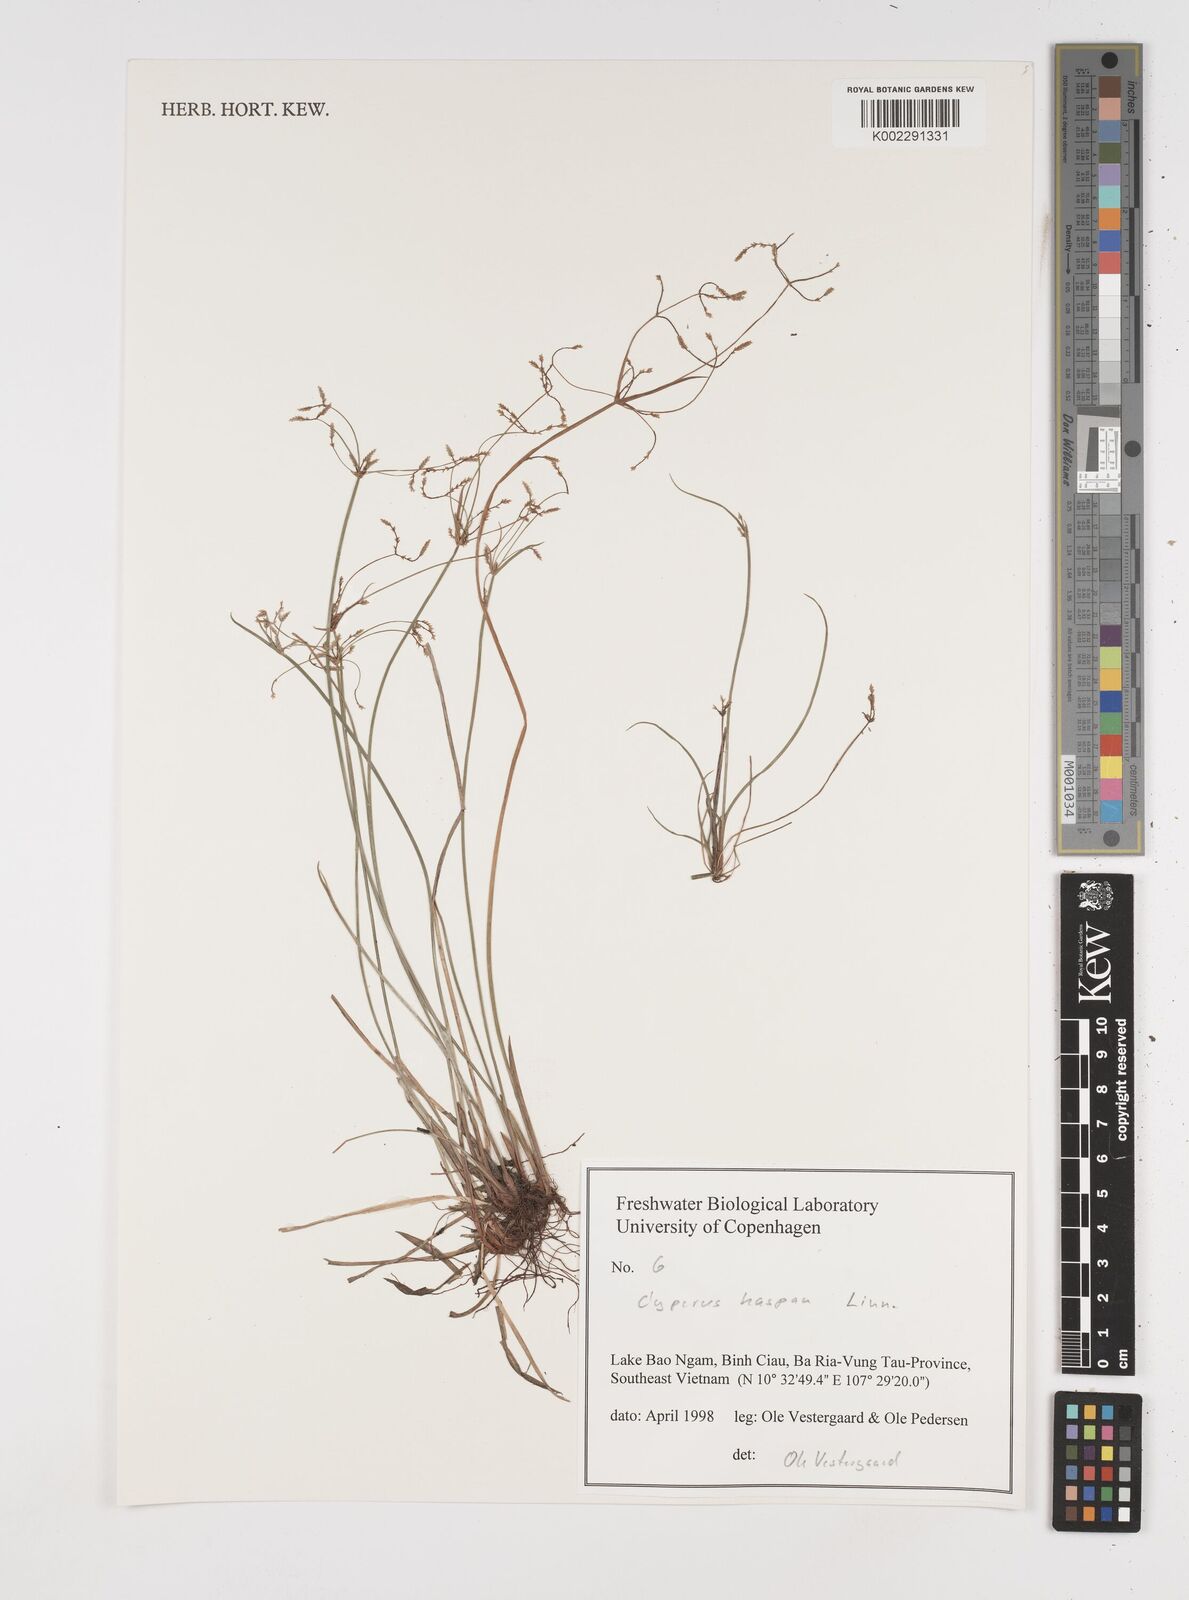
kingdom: Plantae
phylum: Tracheophyta
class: Liliopsida
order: Poales
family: Cyperaceae
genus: Cyperus
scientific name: Cyperus haspan
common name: Haspan flatsedge
